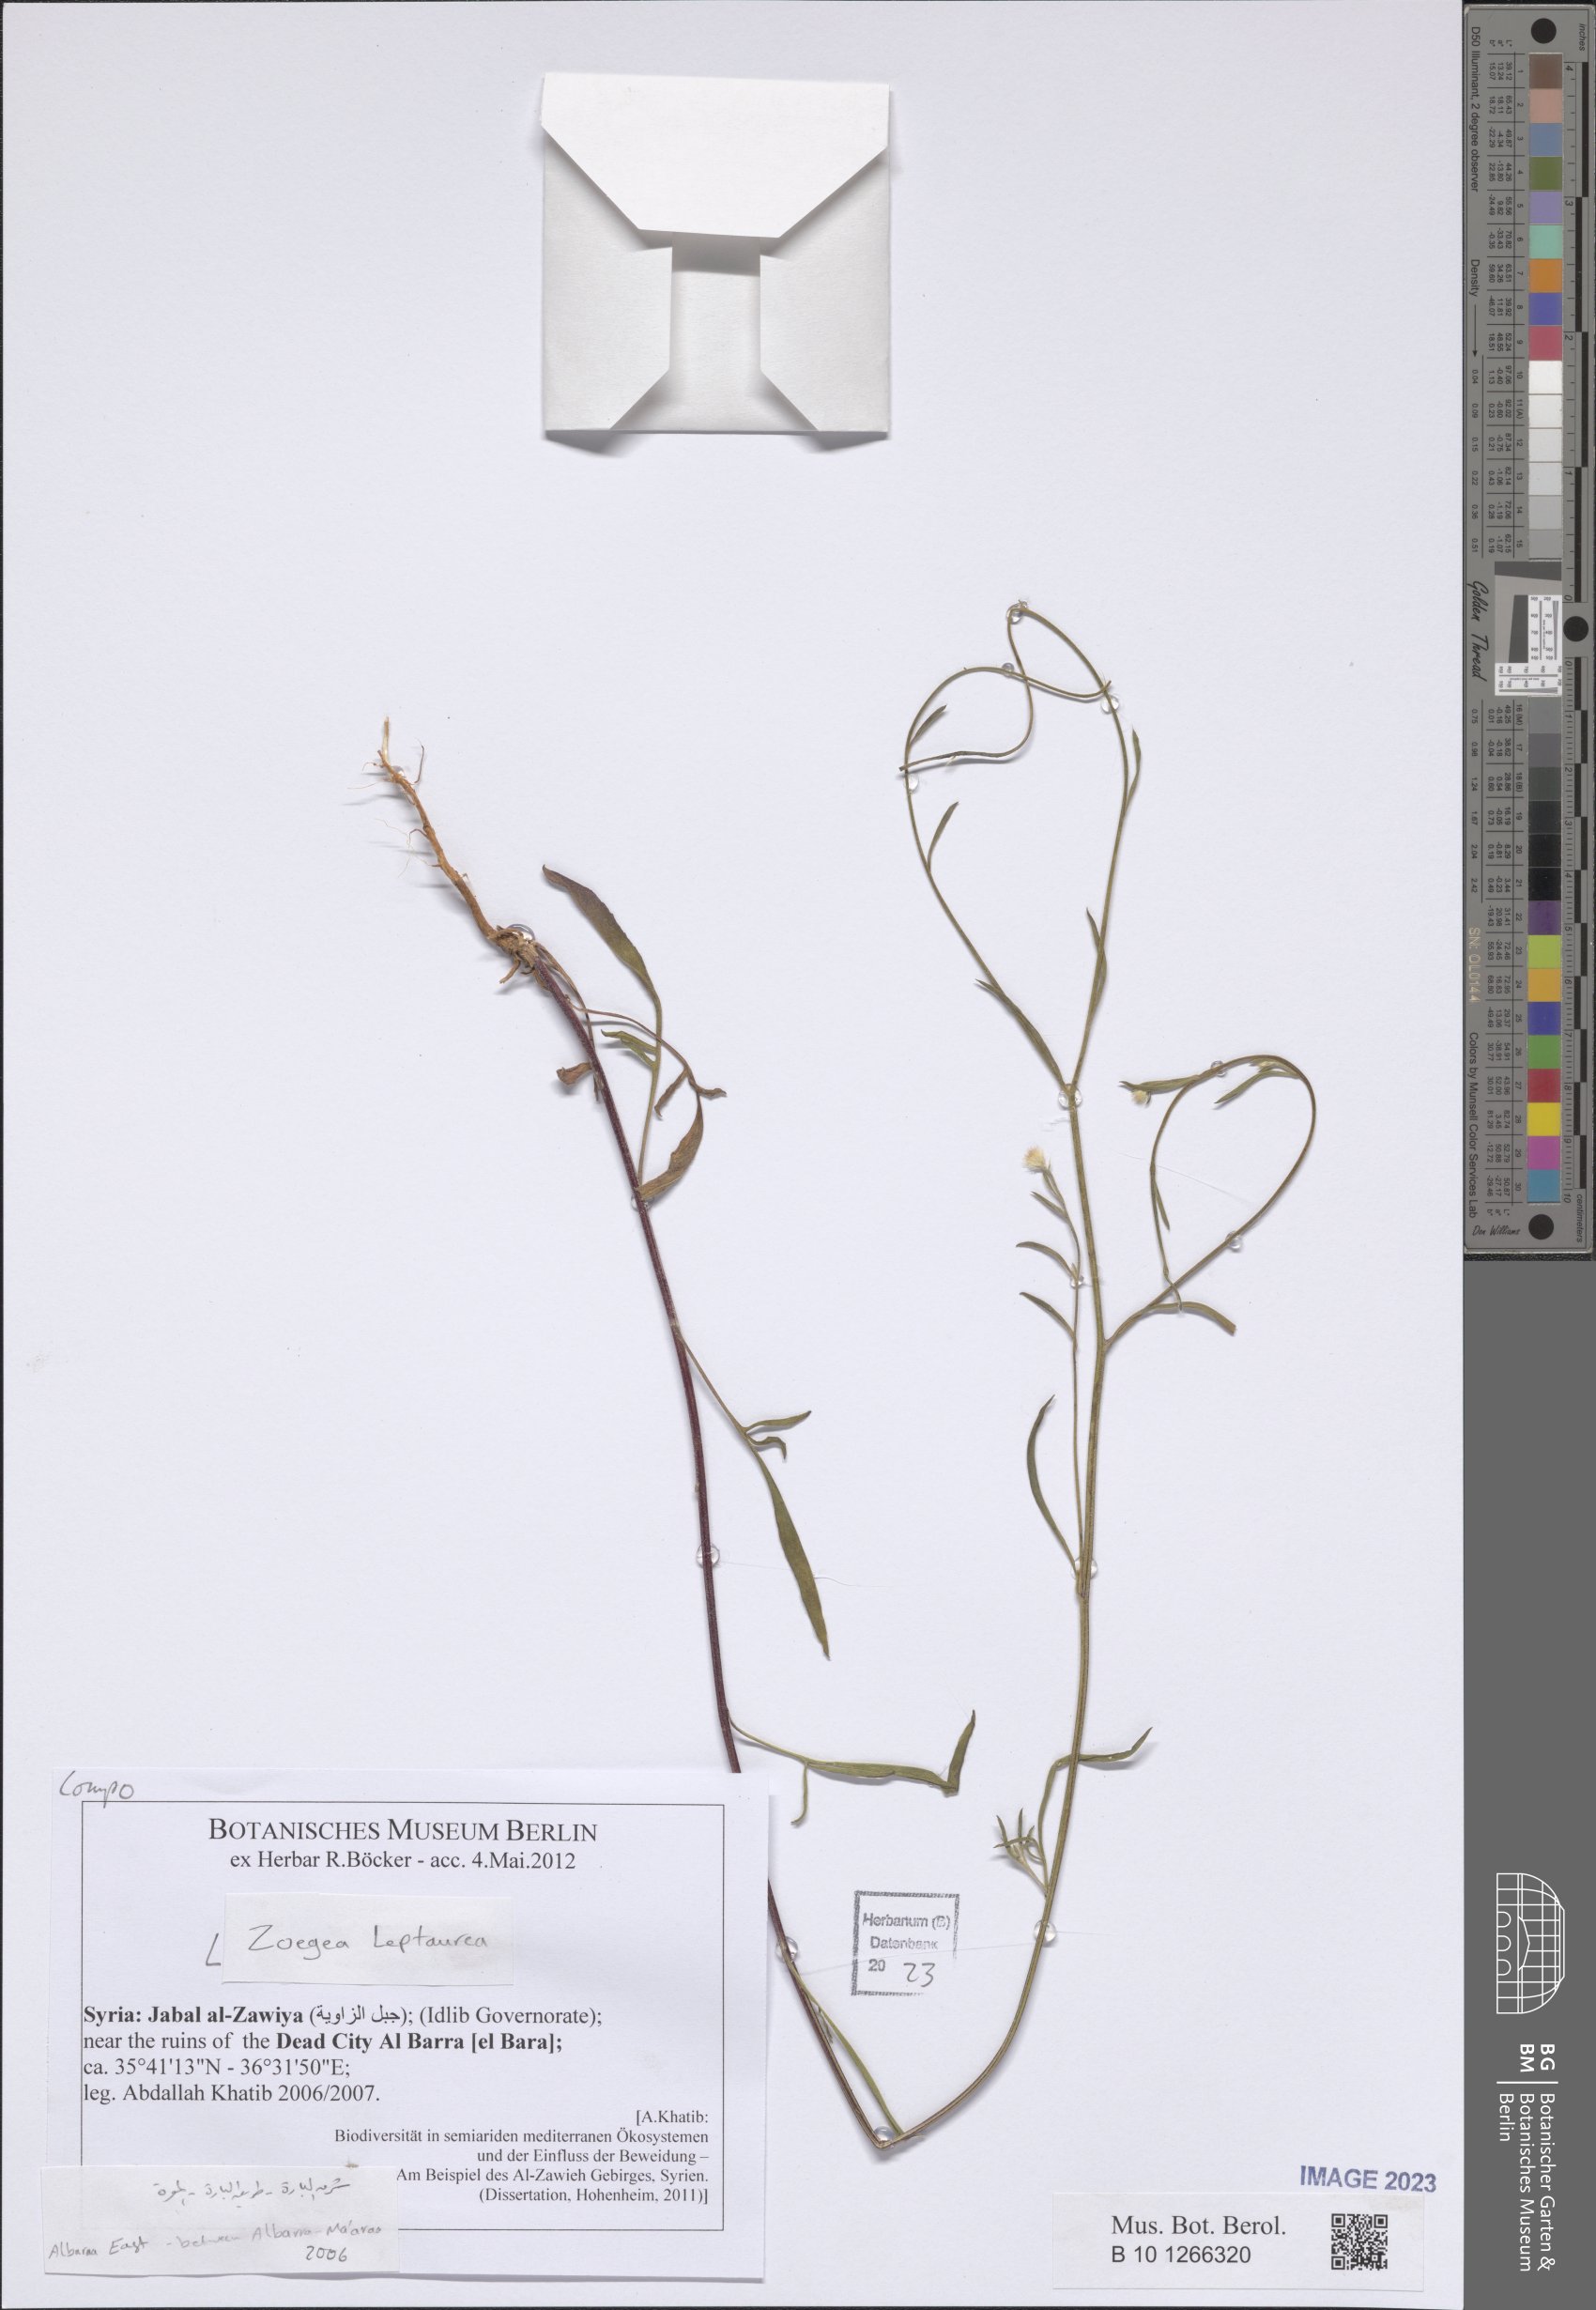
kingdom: Plantae
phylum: Tracheophyta
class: Magnoliopsida
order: Asterales
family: Asteraceae
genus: Zoegea
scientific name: Zoegea leptaurea
